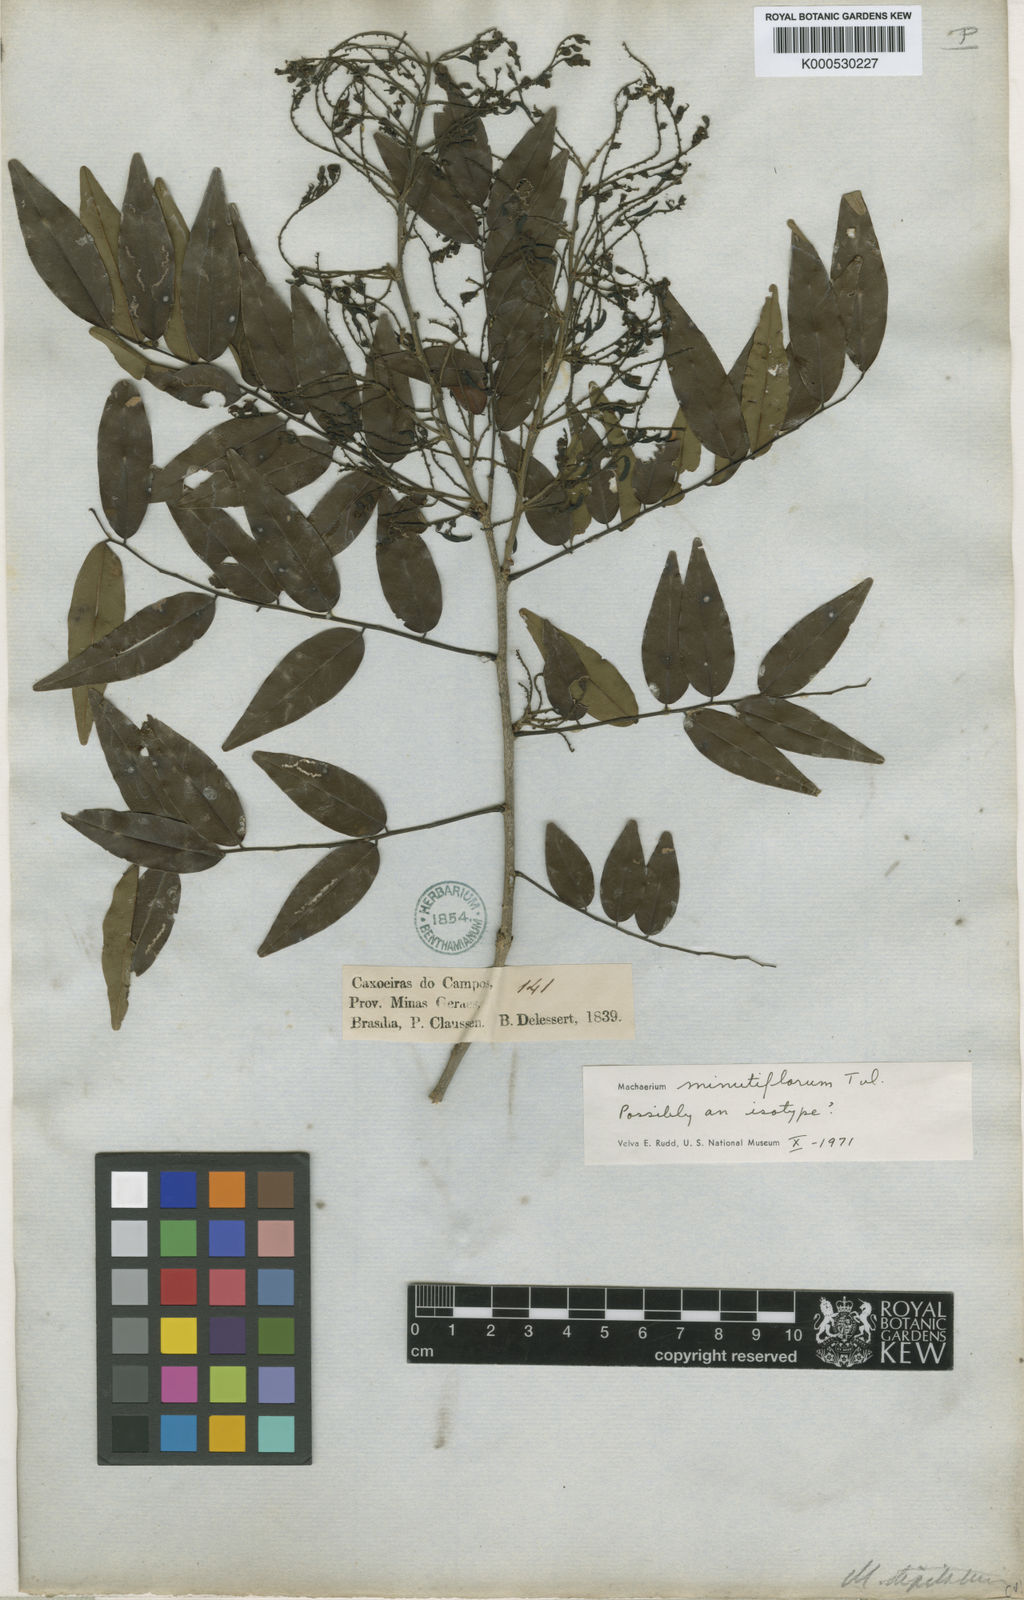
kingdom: Plantae
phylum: Tracheophyta
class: Magnoliopsida
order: Fabales
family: Fabaceae
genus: Machaerium
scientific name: Machaerium stipitatum
